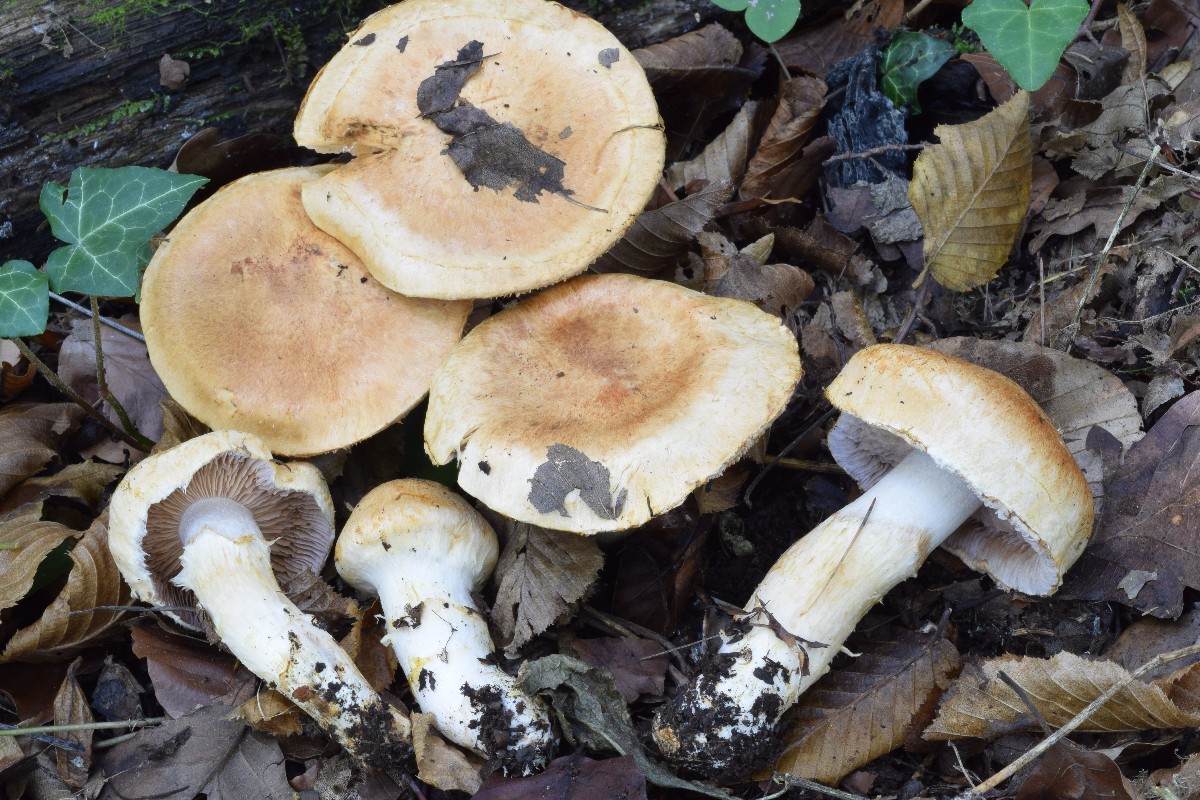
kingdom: Fungi
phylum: Basidiomycota
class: Agaricomycetes
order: Agaricales
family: Cortinariaceae
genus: Phlegmacium
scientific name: Phlegmacium pseudovulpinum
